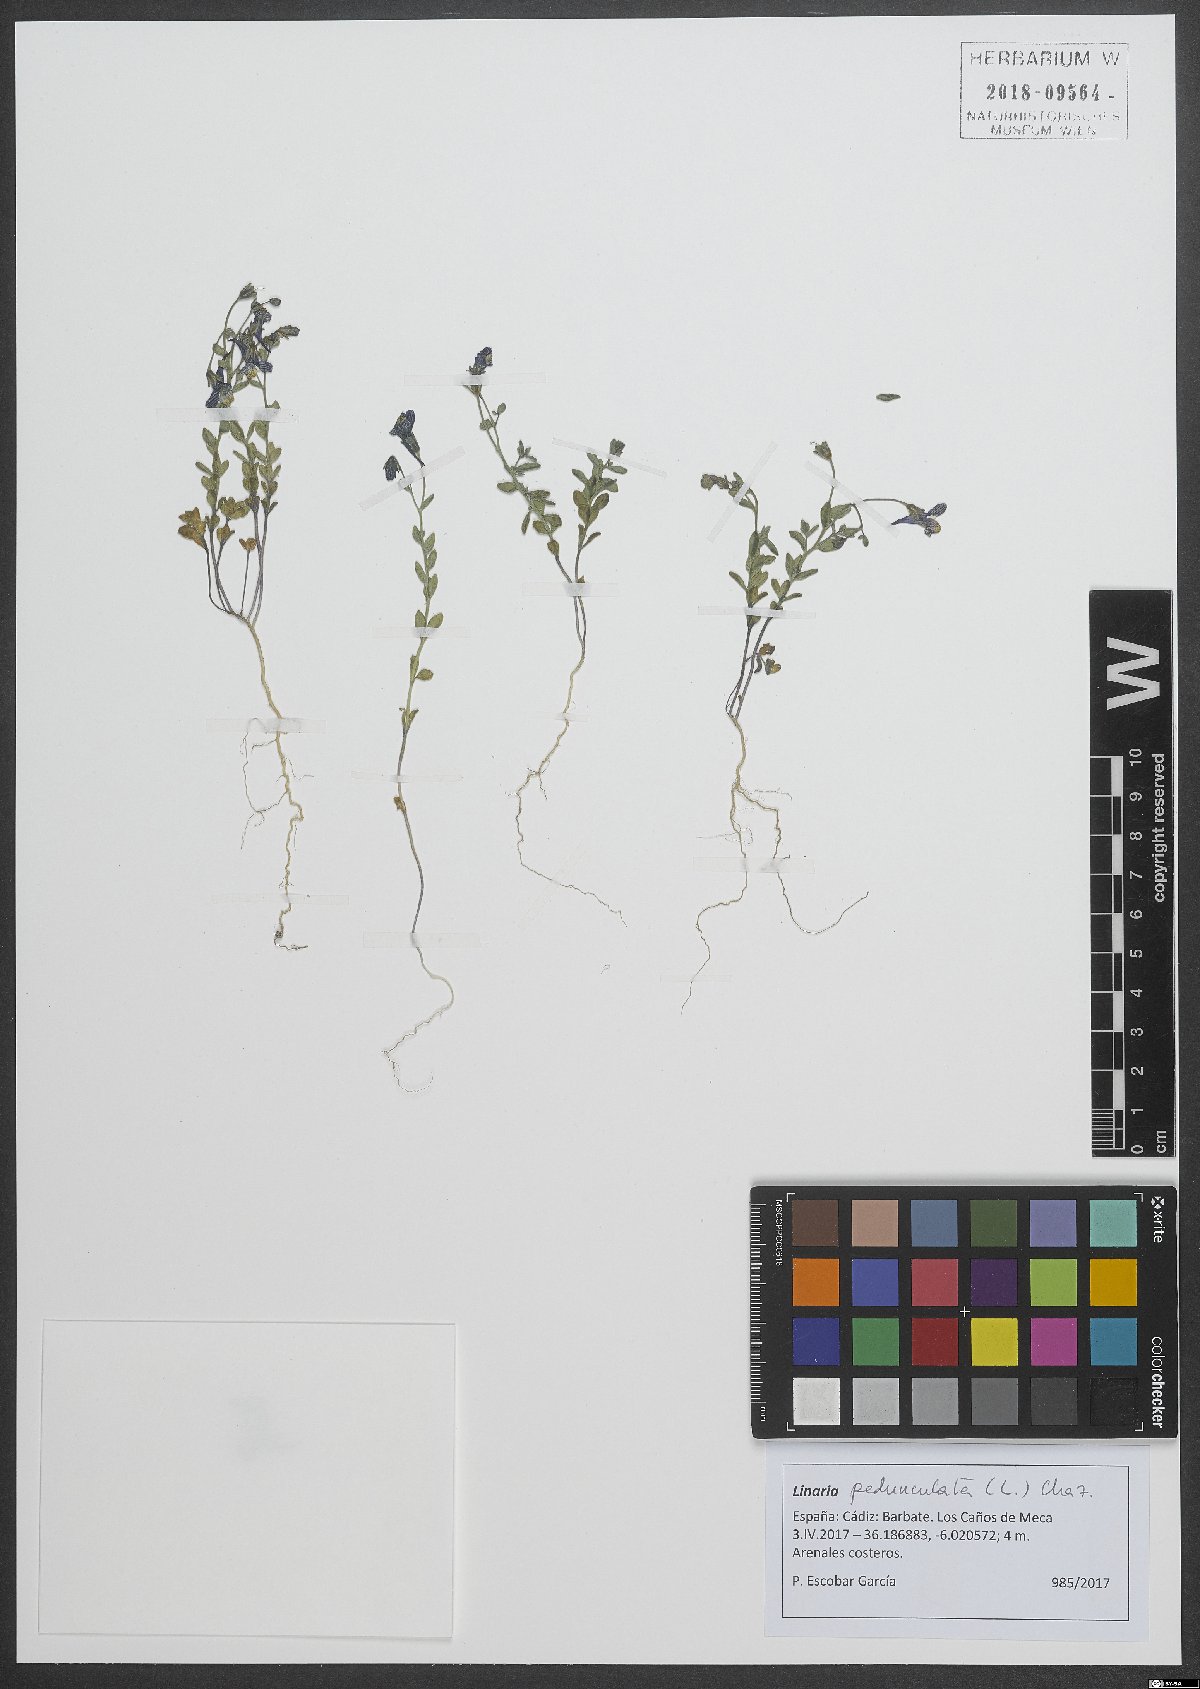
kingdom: Plantae
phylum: Tracheophyta
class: Magnoliopsida
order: Lamiales
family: Plantaginaceae
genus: Linaria
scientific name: Linaria pedunculata
